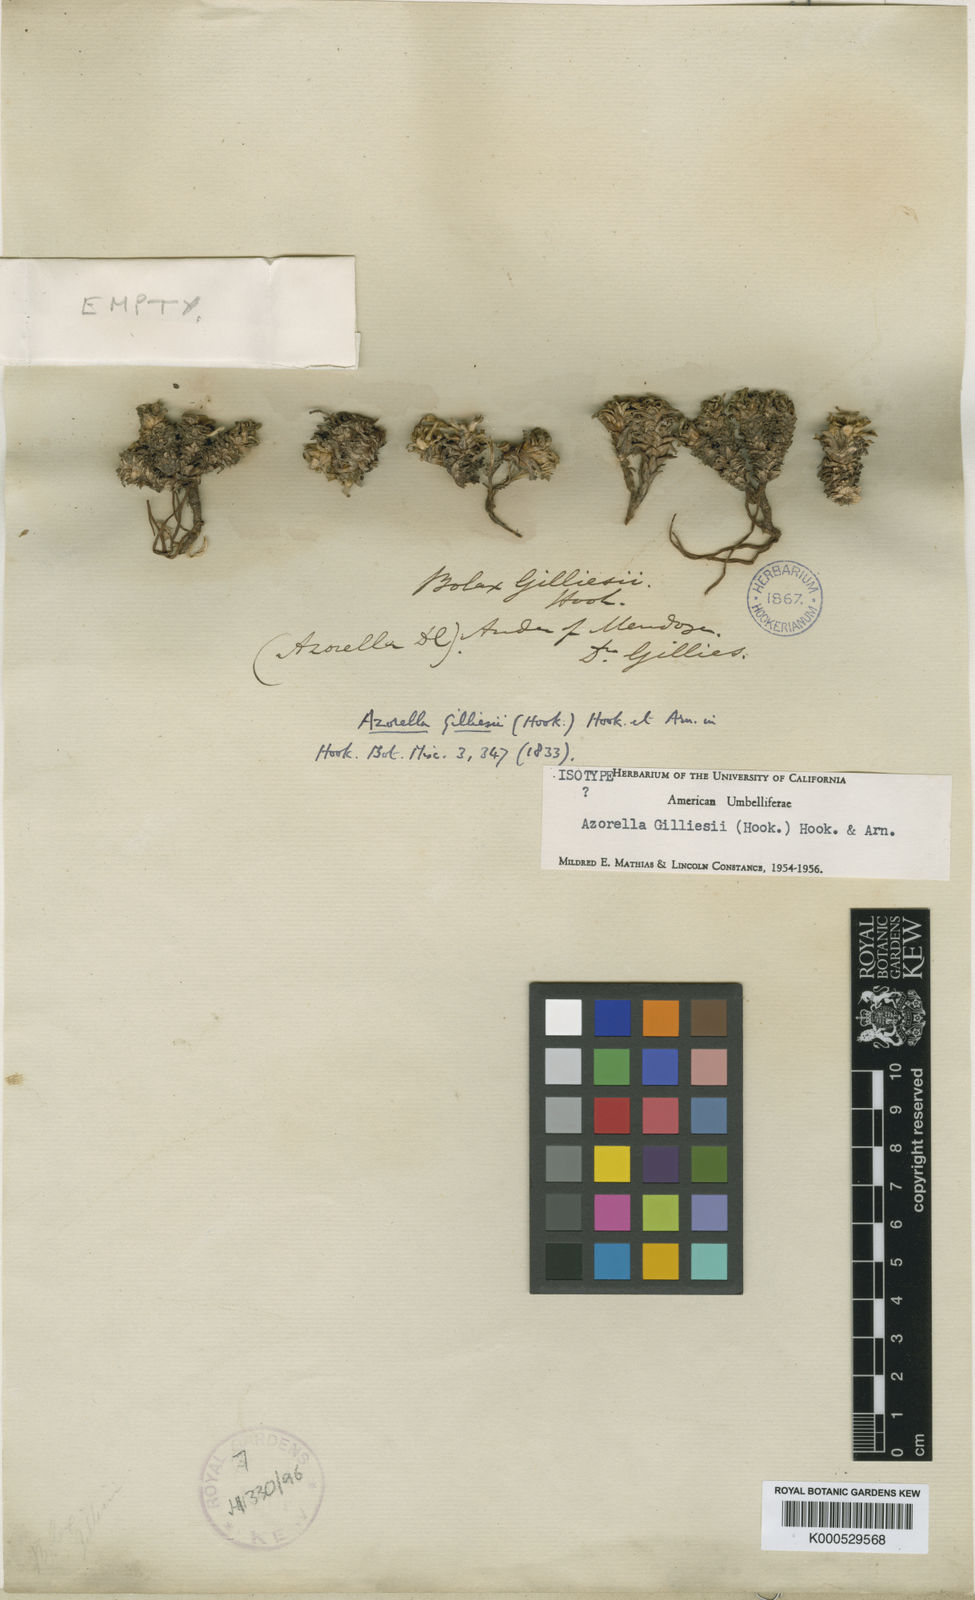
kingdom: Plantae
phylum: Tracheophyta
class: Magnoliopsida
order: Apiales
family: Apiaceae
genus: Azorella
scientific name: Azorella trifurcata
